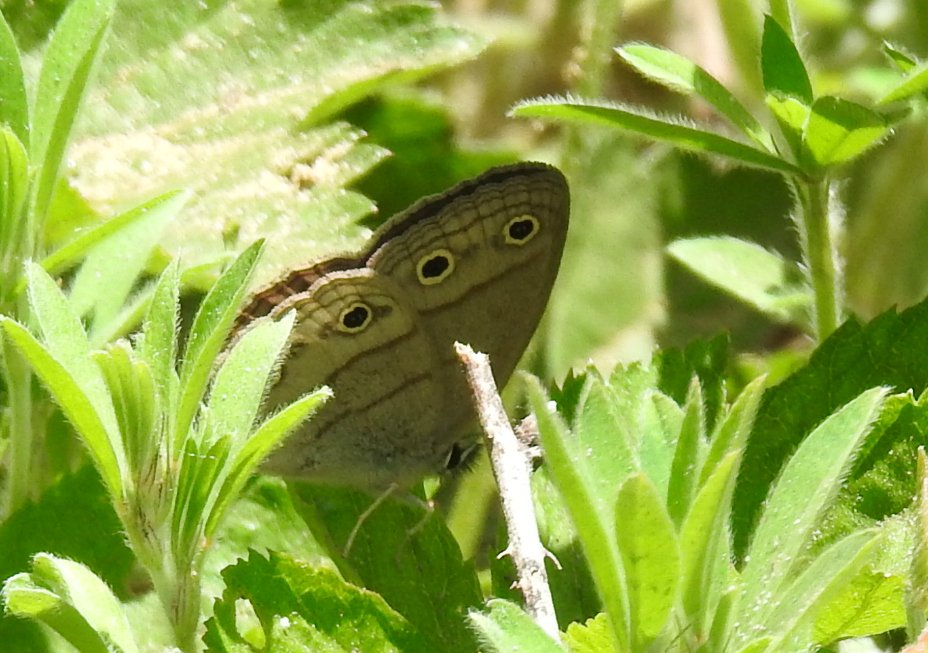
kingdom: Animalia
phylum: Arthropoda
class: Insecta
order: Lepidoptera
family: Nymphalidae
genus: Euptychia
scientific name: Euptychia cymela
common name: Little Wood Satyr
